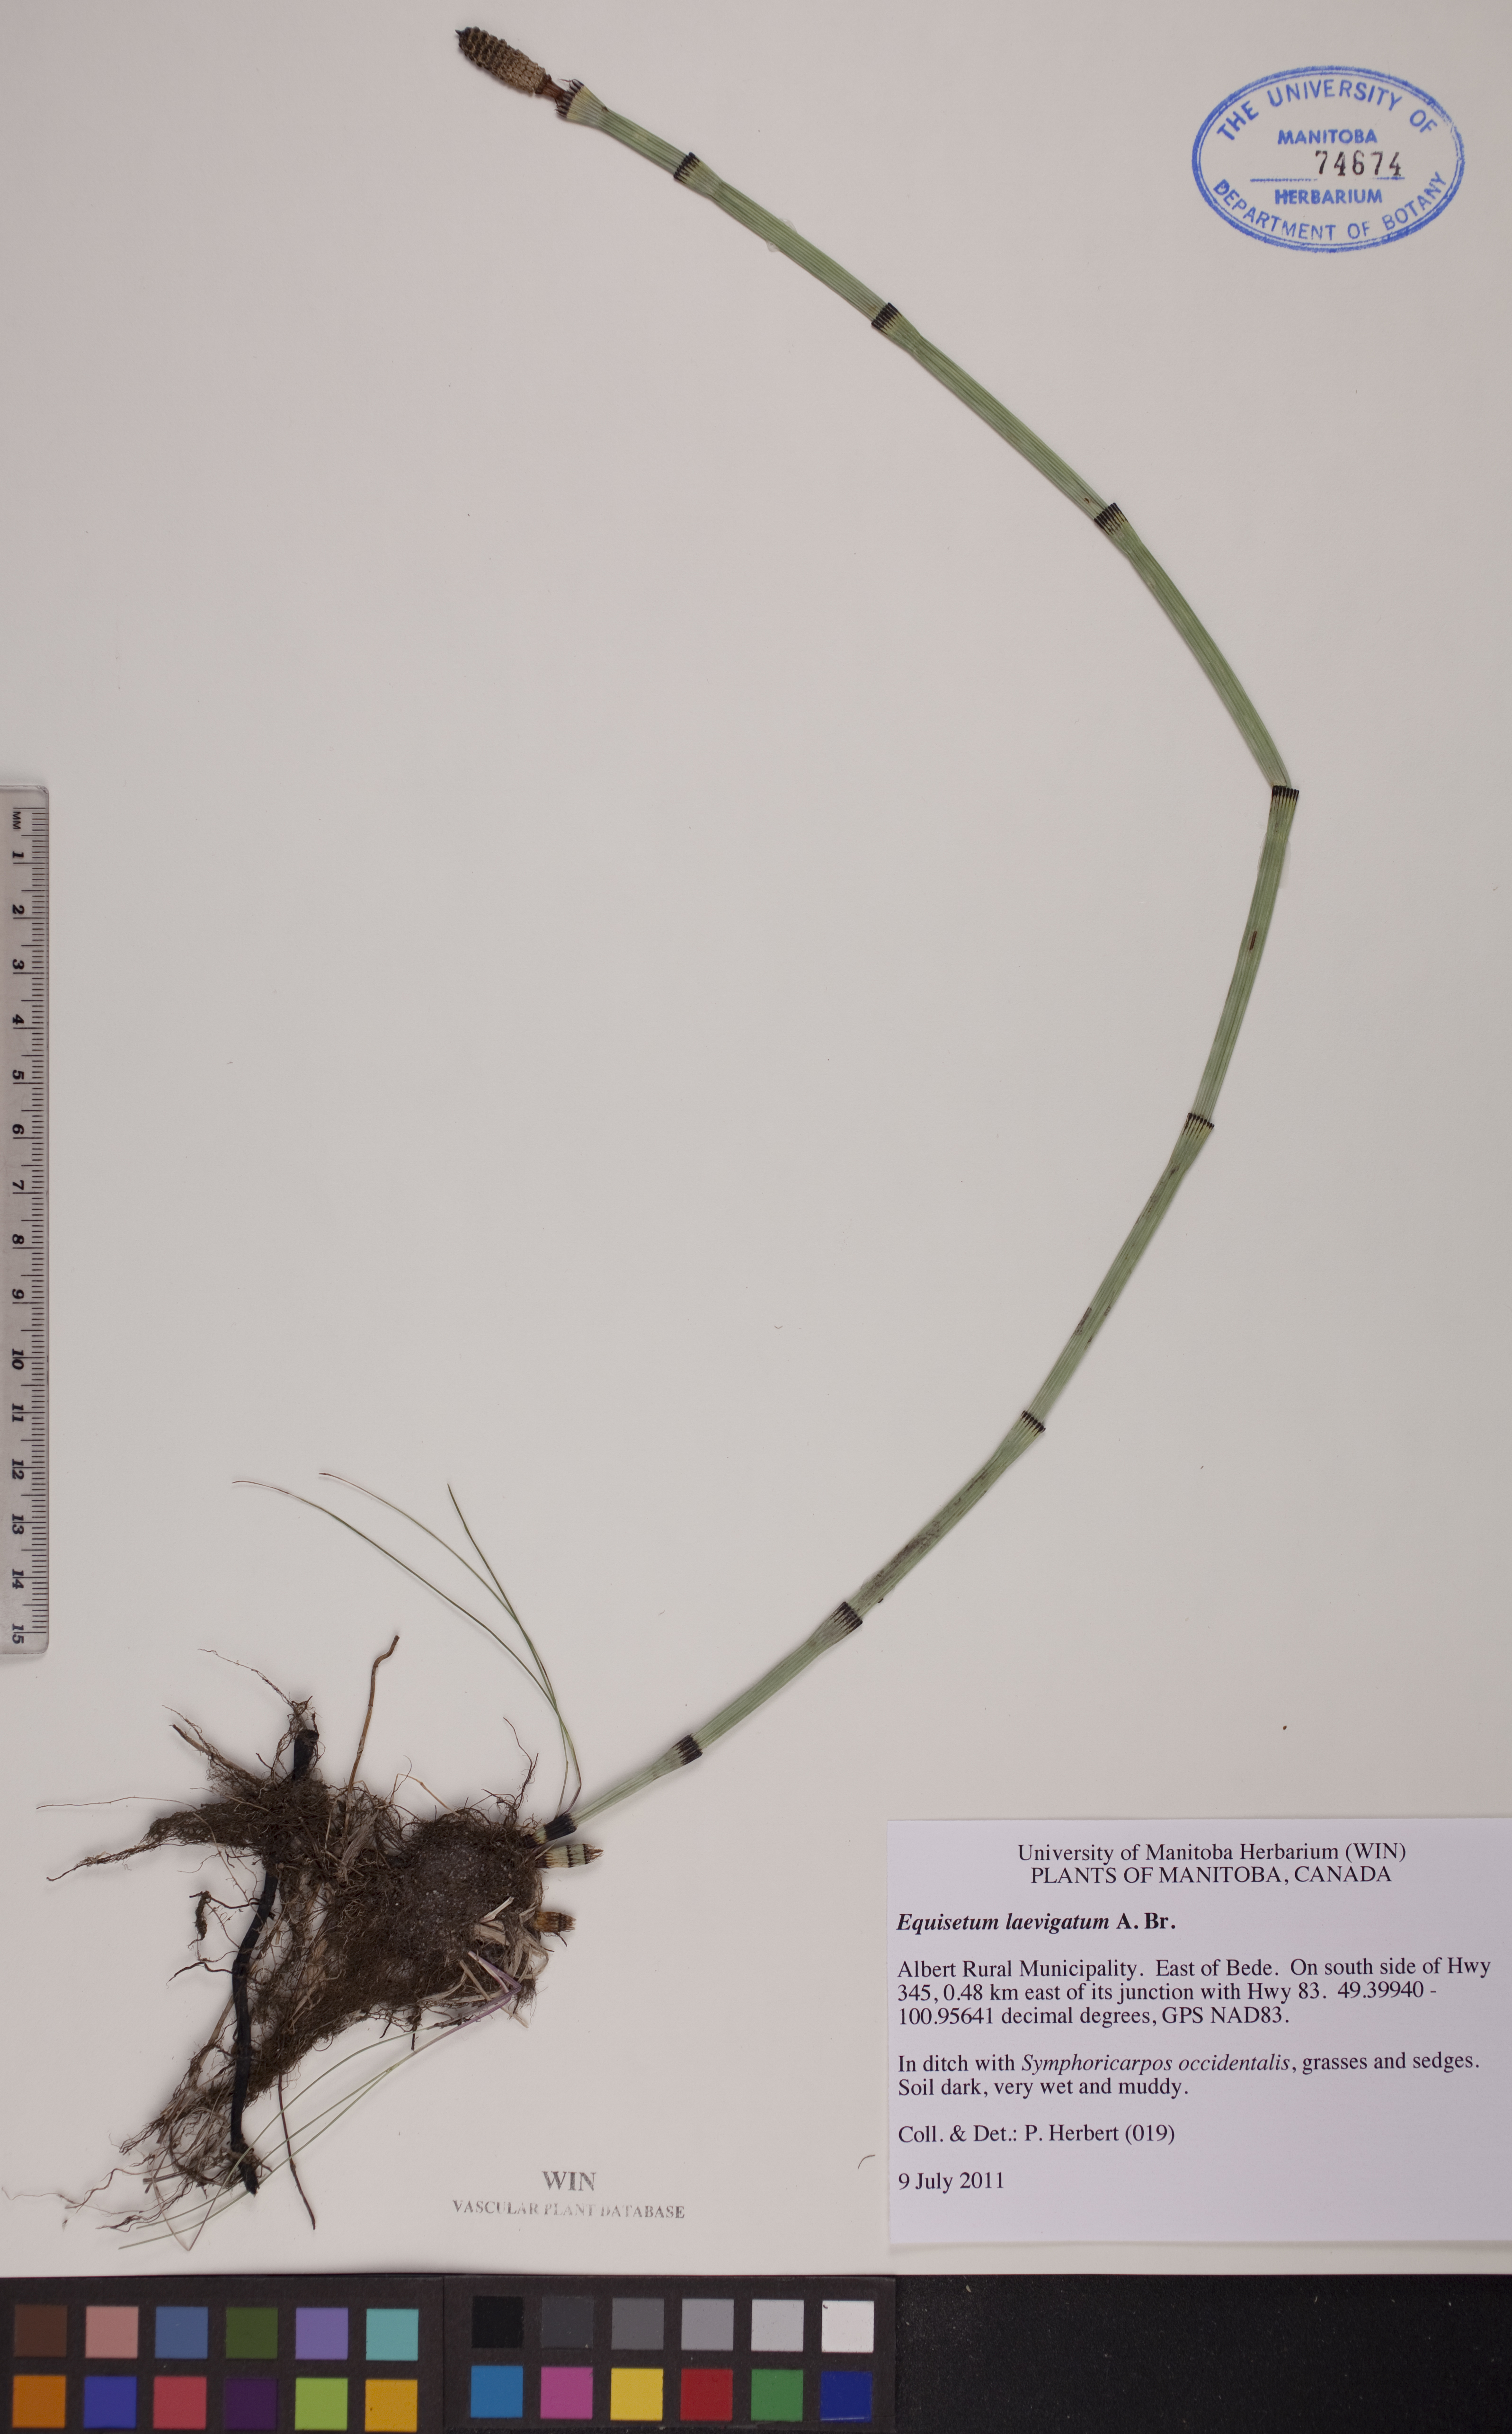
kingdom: Plantae
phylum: Tracheophyta
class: Polypodiopsida
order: Equisetales
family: Equisetaceae
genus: Equisetum
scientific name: Equisetum laevigatum
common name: Smooth scouring-rush
